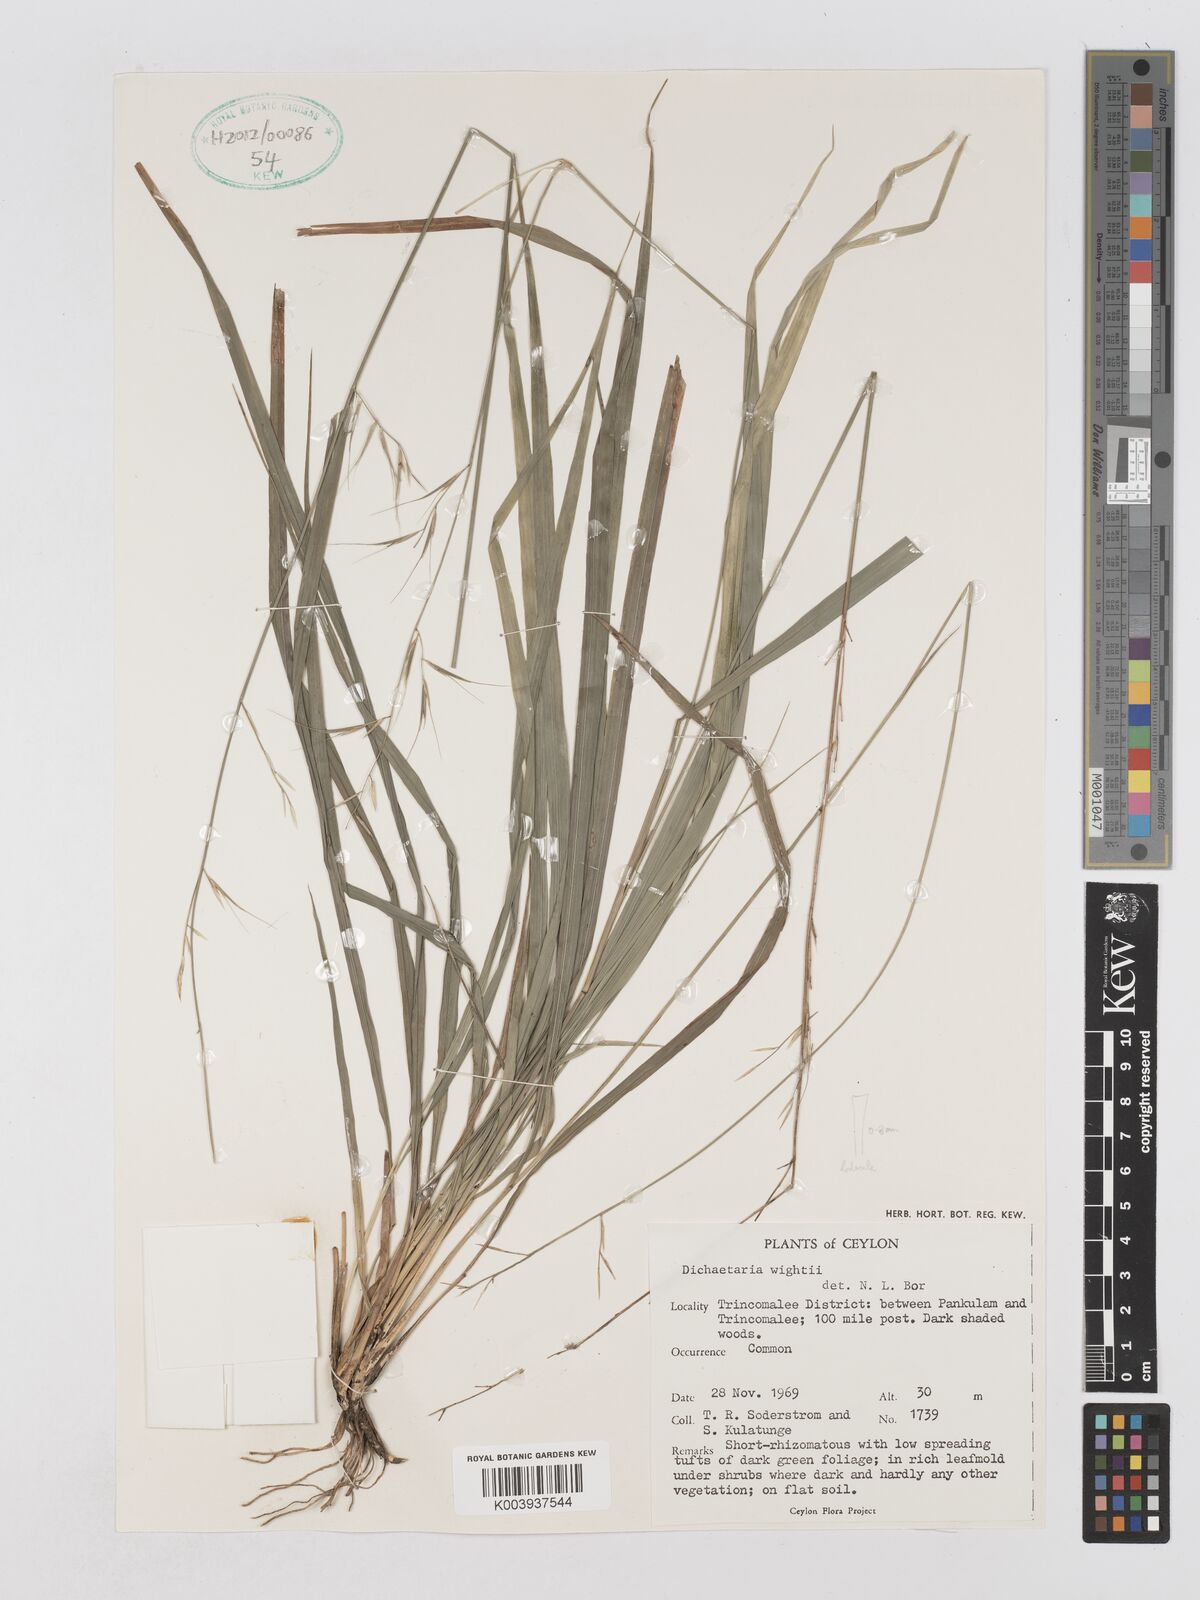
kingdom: Plantae
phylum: Tracheophyta
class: Liliopsida
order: Poales
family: Poaceae
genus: Dichaetaria
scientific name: Dichaetaria wightii
